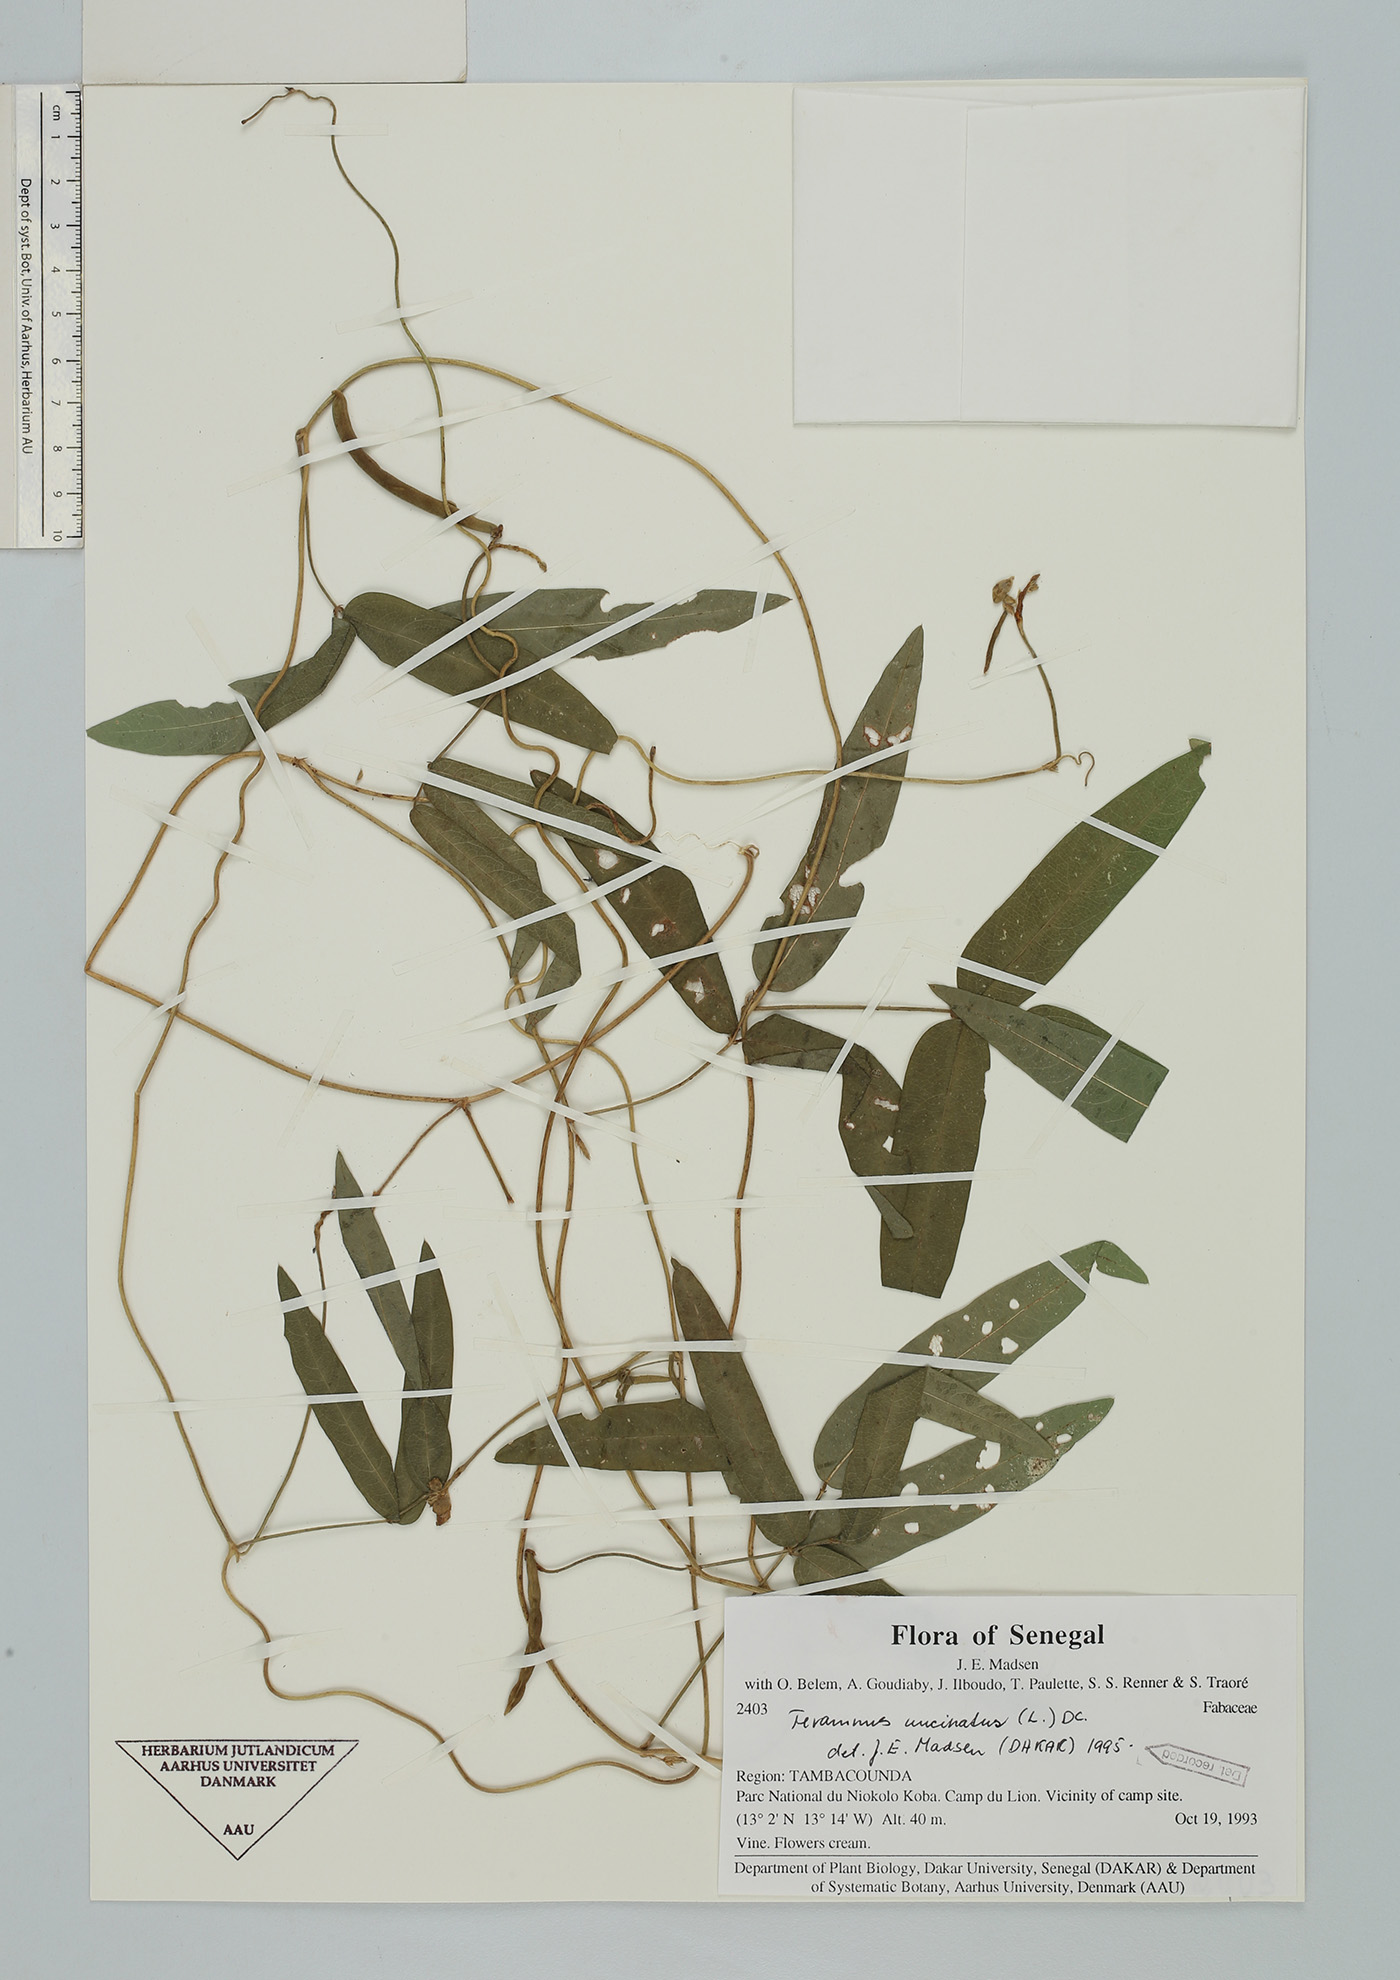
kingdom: Plantae
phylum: Tracheophyta
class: Magnoliopsida
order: Fabales
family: Fabaceae
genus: Teramnus
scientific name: Teramnus uncinatus
